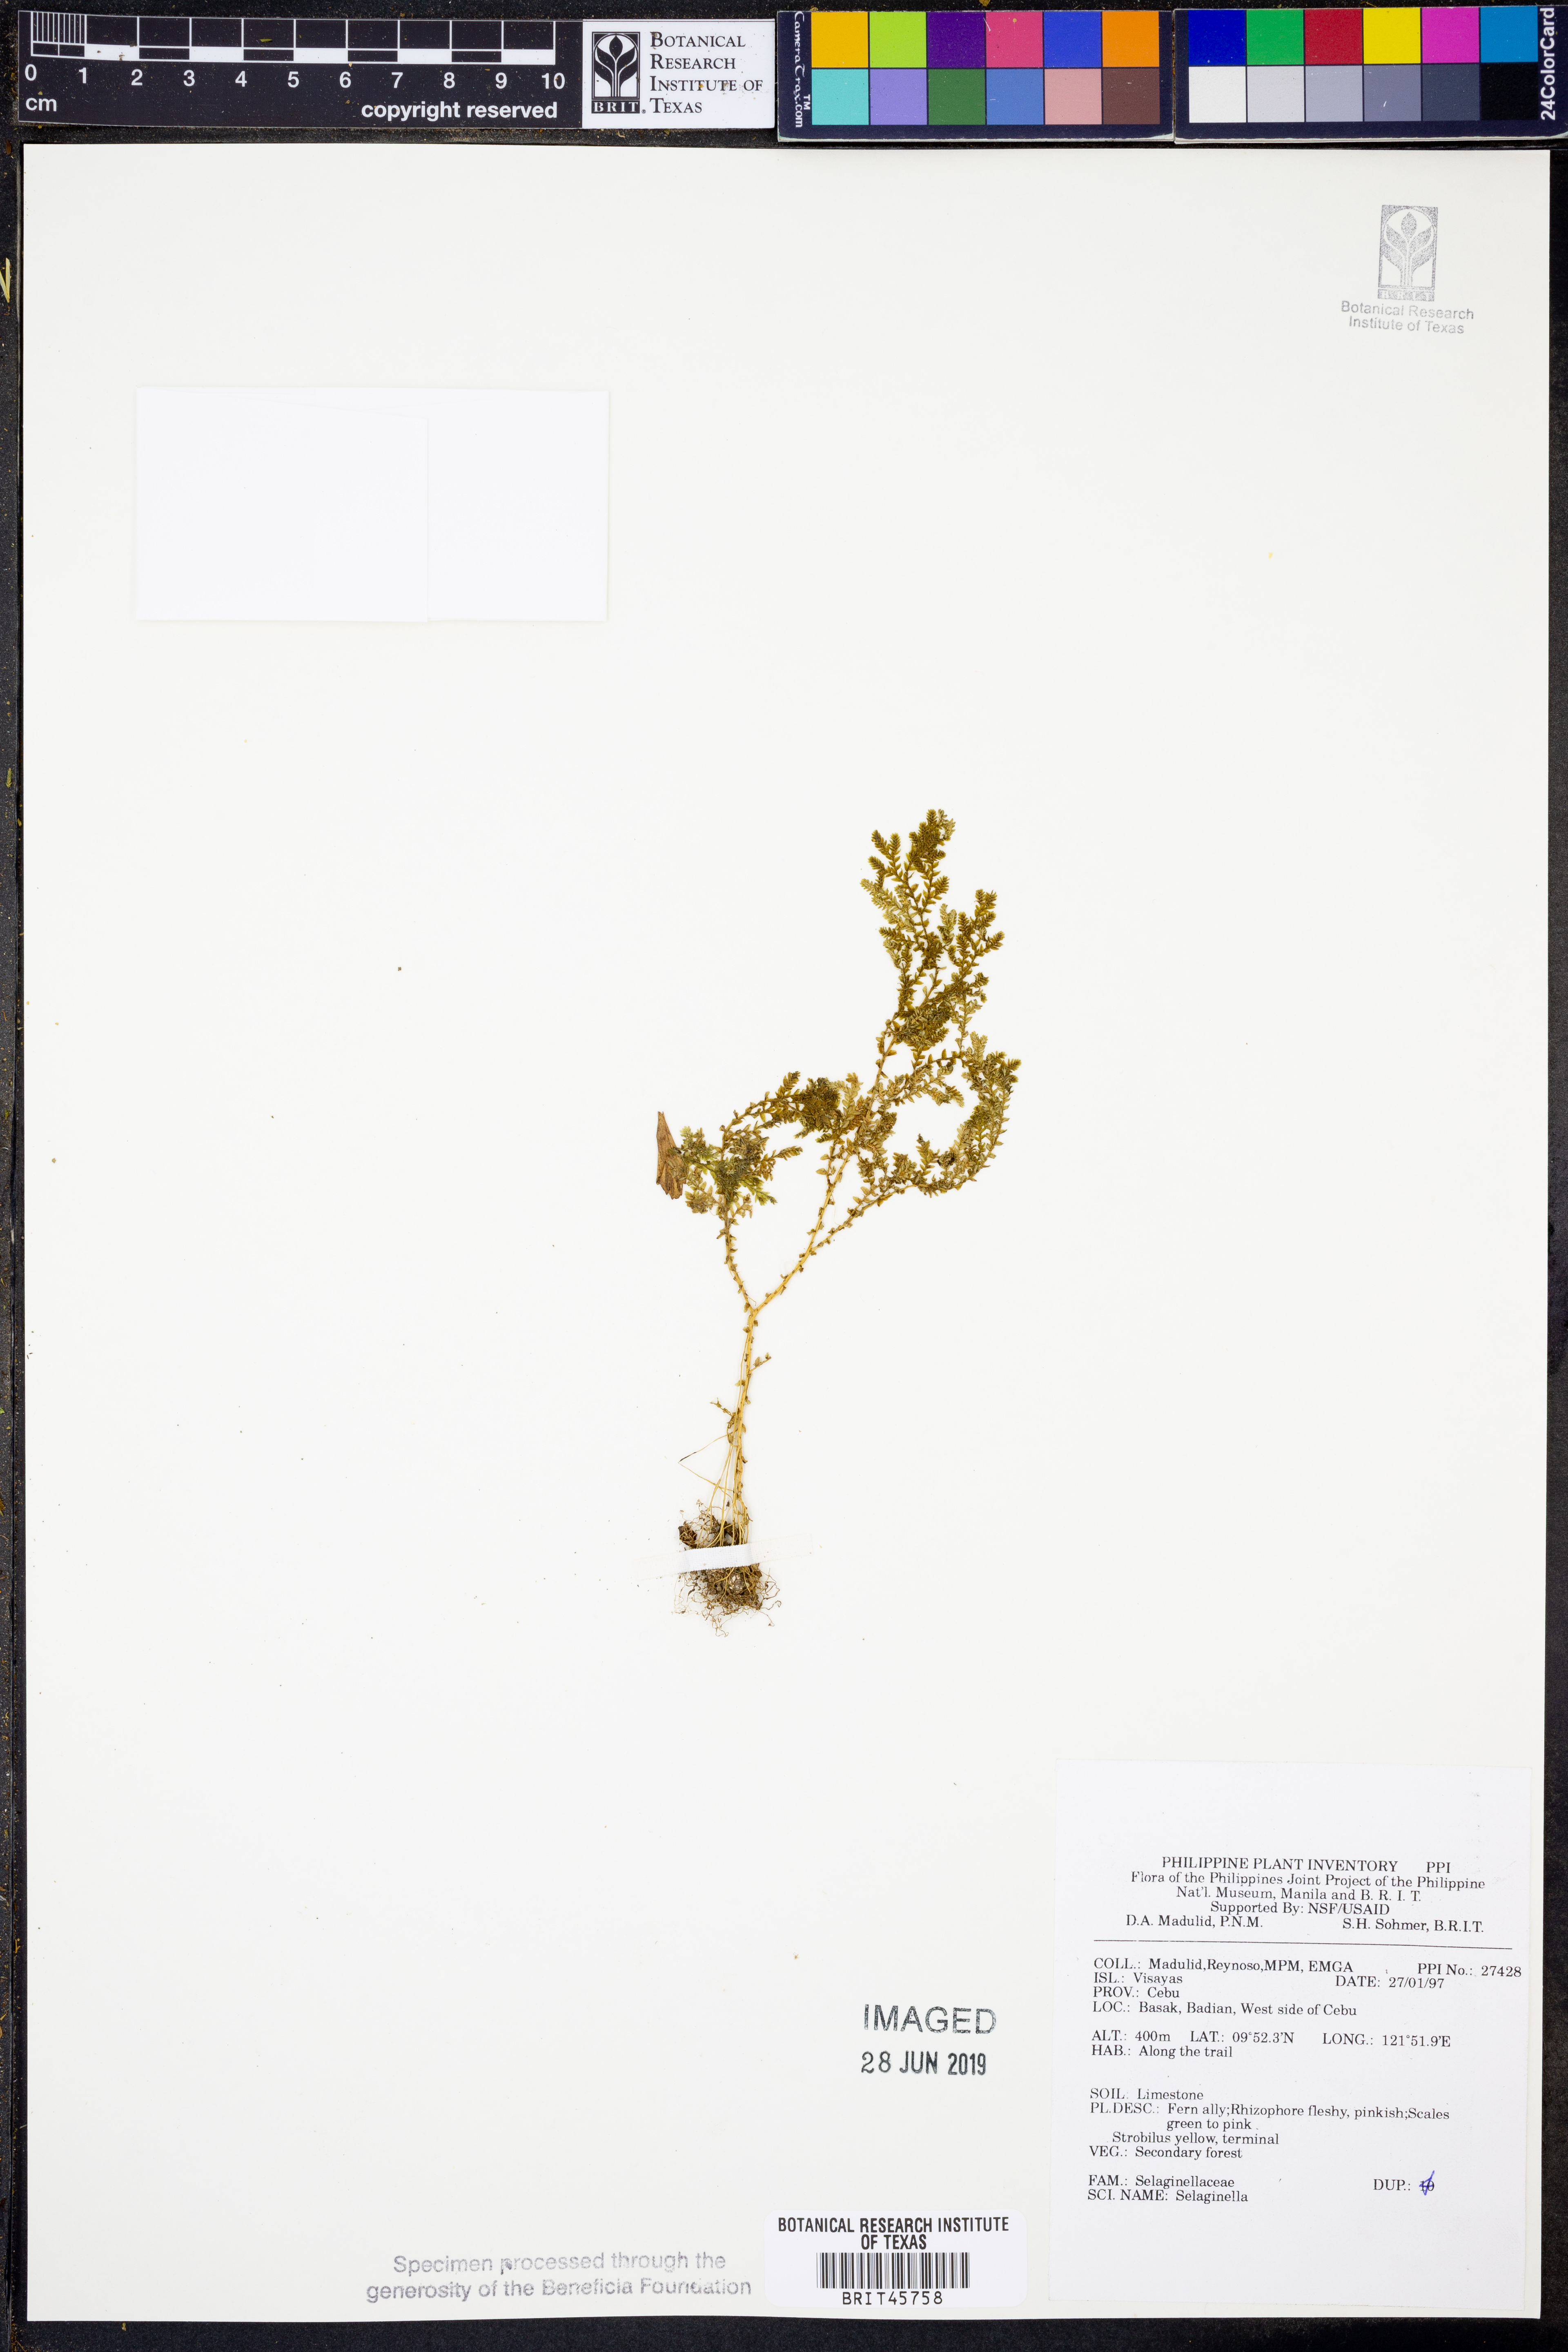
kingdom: Plantae
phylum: Tracheophyta
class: Lycopodiopsida
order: Selaginellales
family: Selaginellaceae
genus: Selaginella
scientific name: Selaginella
